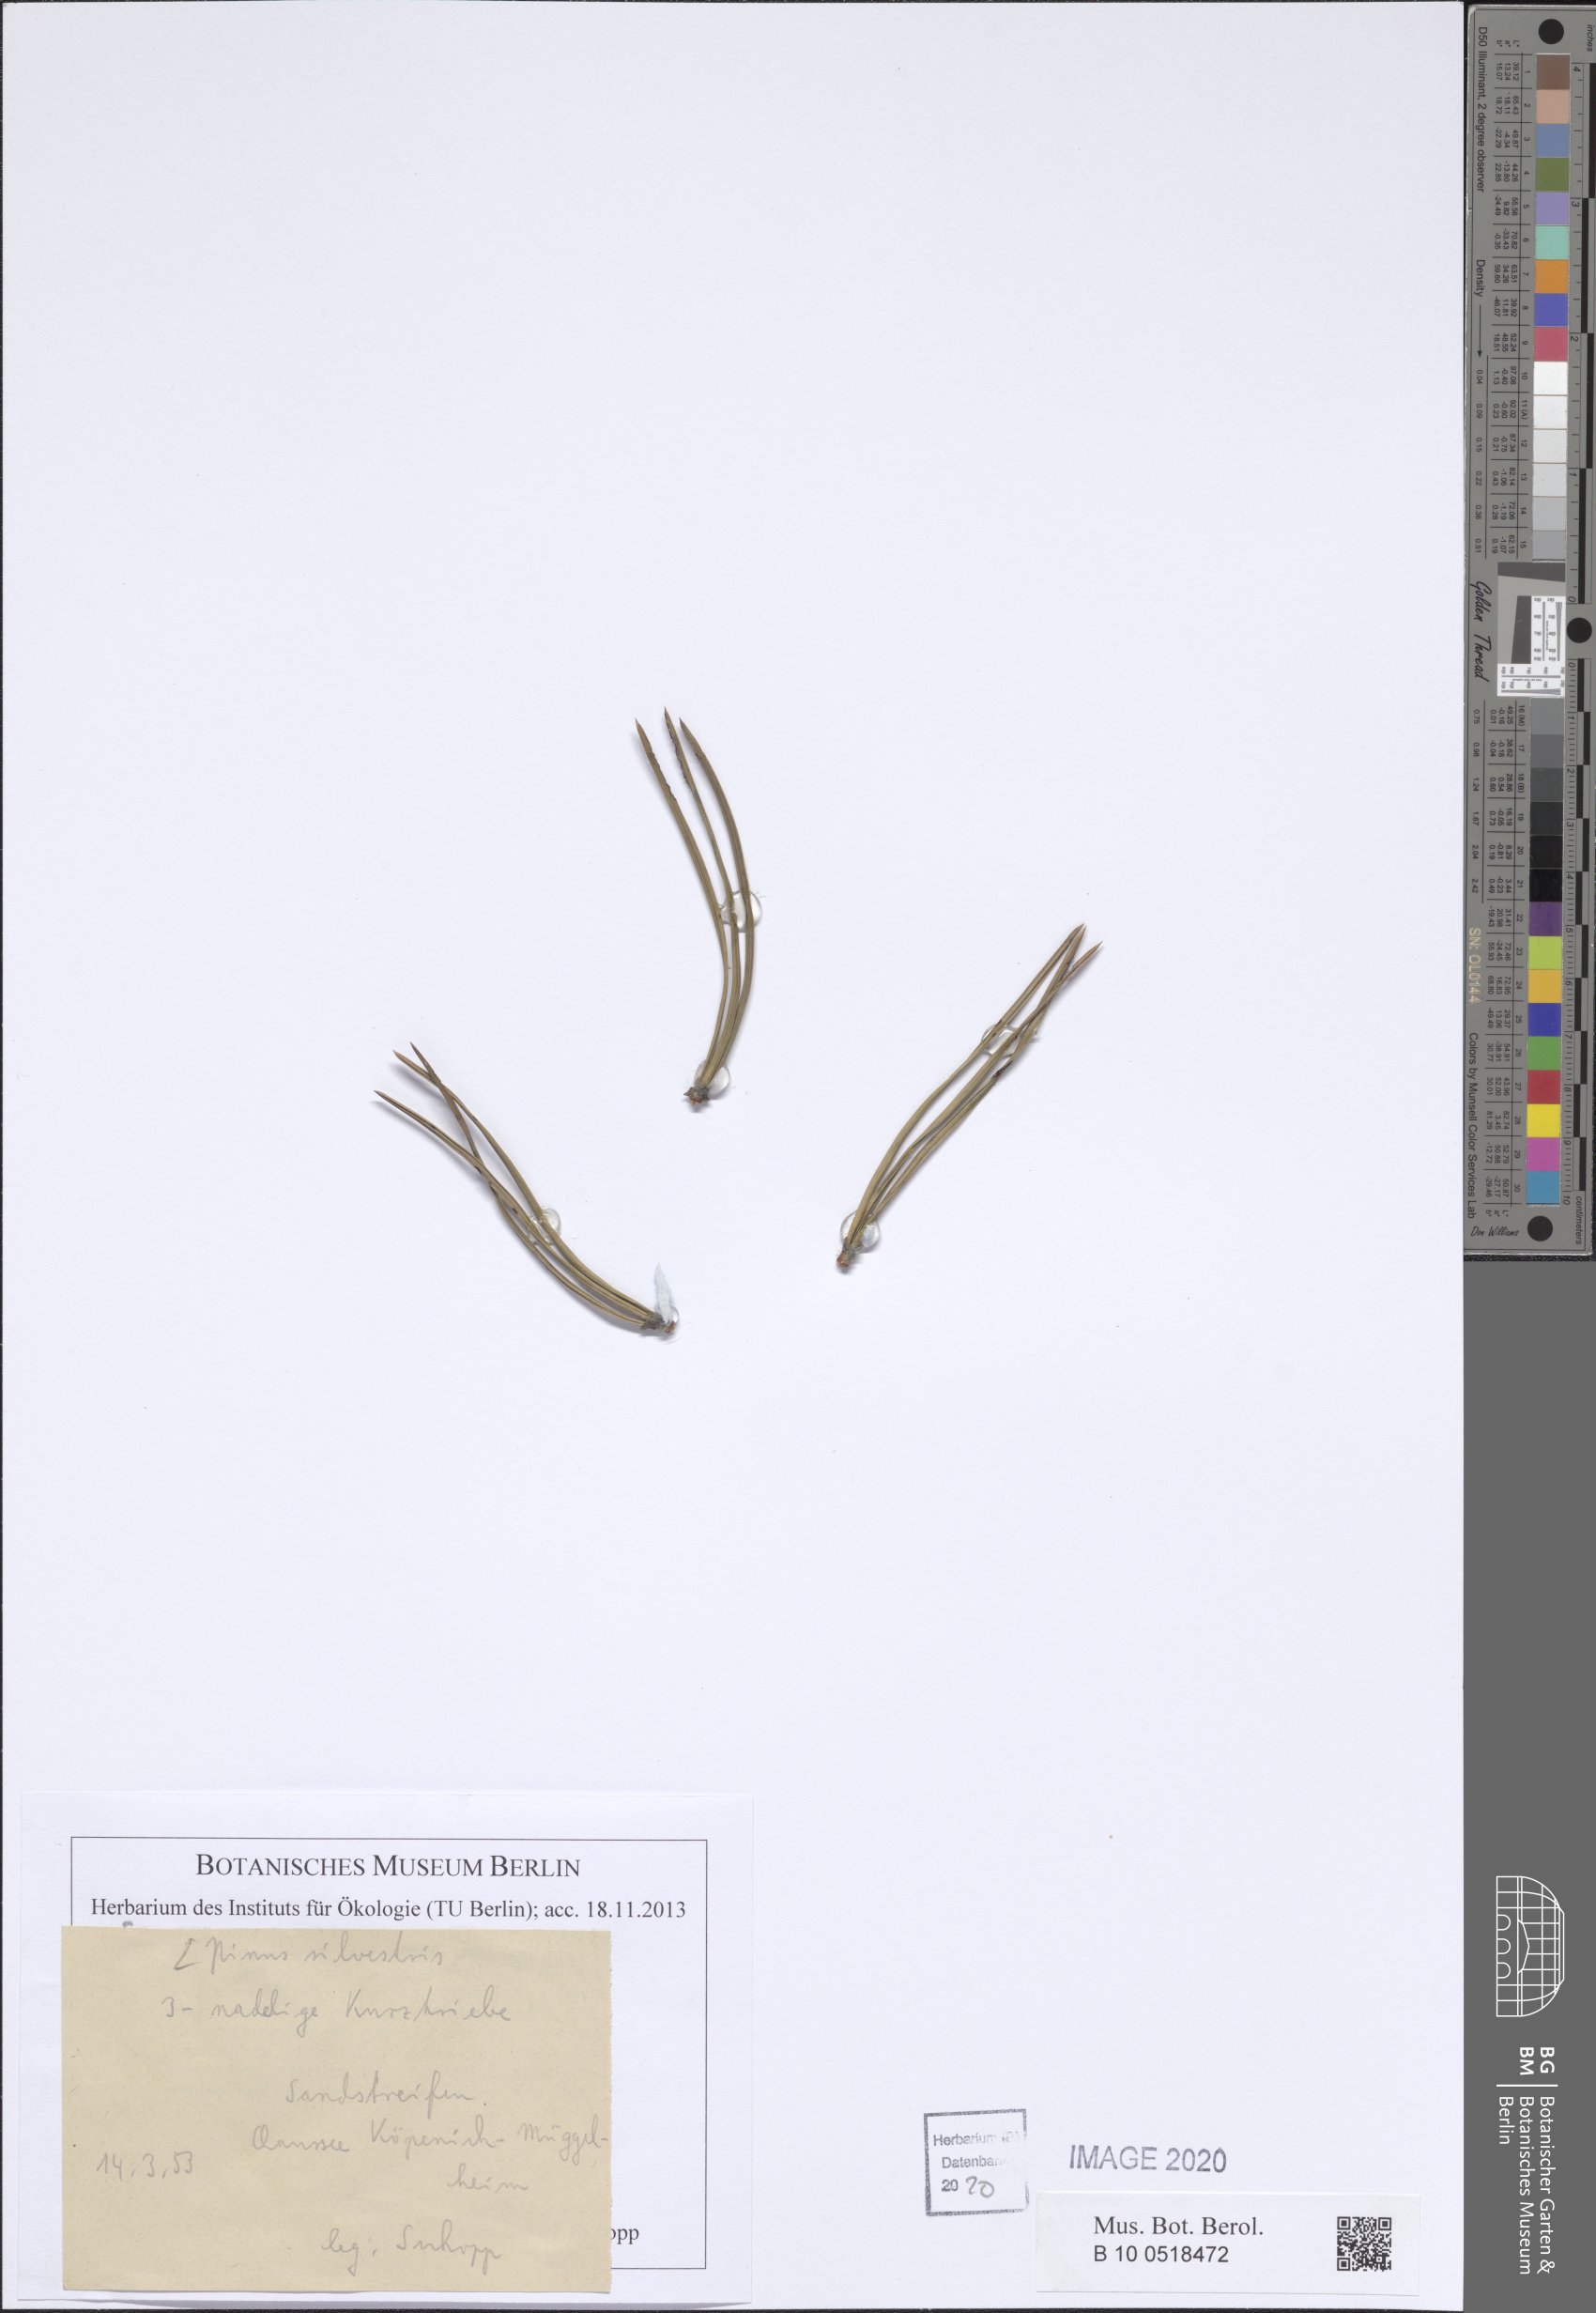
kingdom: Plantae
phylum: Tracheophyta
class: Pinopsida
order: Pinales
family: Pinaceae
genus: Pinus
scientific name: Pinus sylvestris
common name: Scots pine
